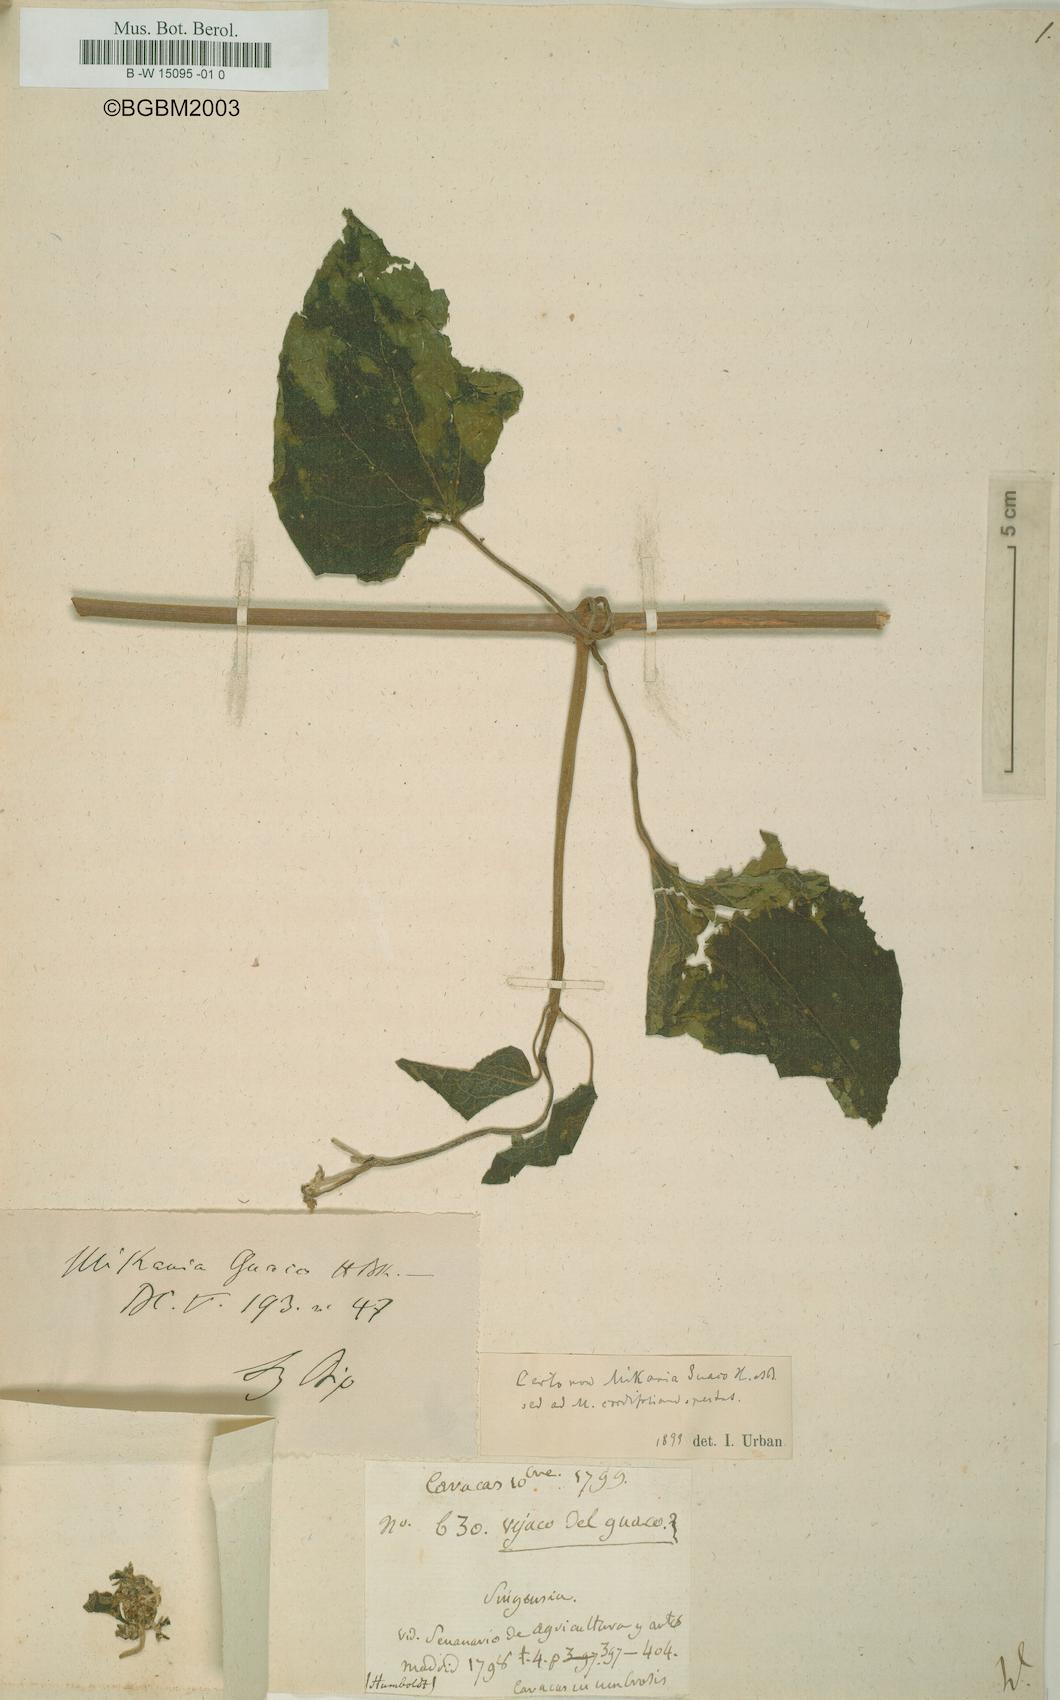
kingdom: Plantae
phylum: Tracheophyta
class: Magnoliopsida
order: Asterales
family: Asteraceae
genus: Mikania
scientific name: Mikania
